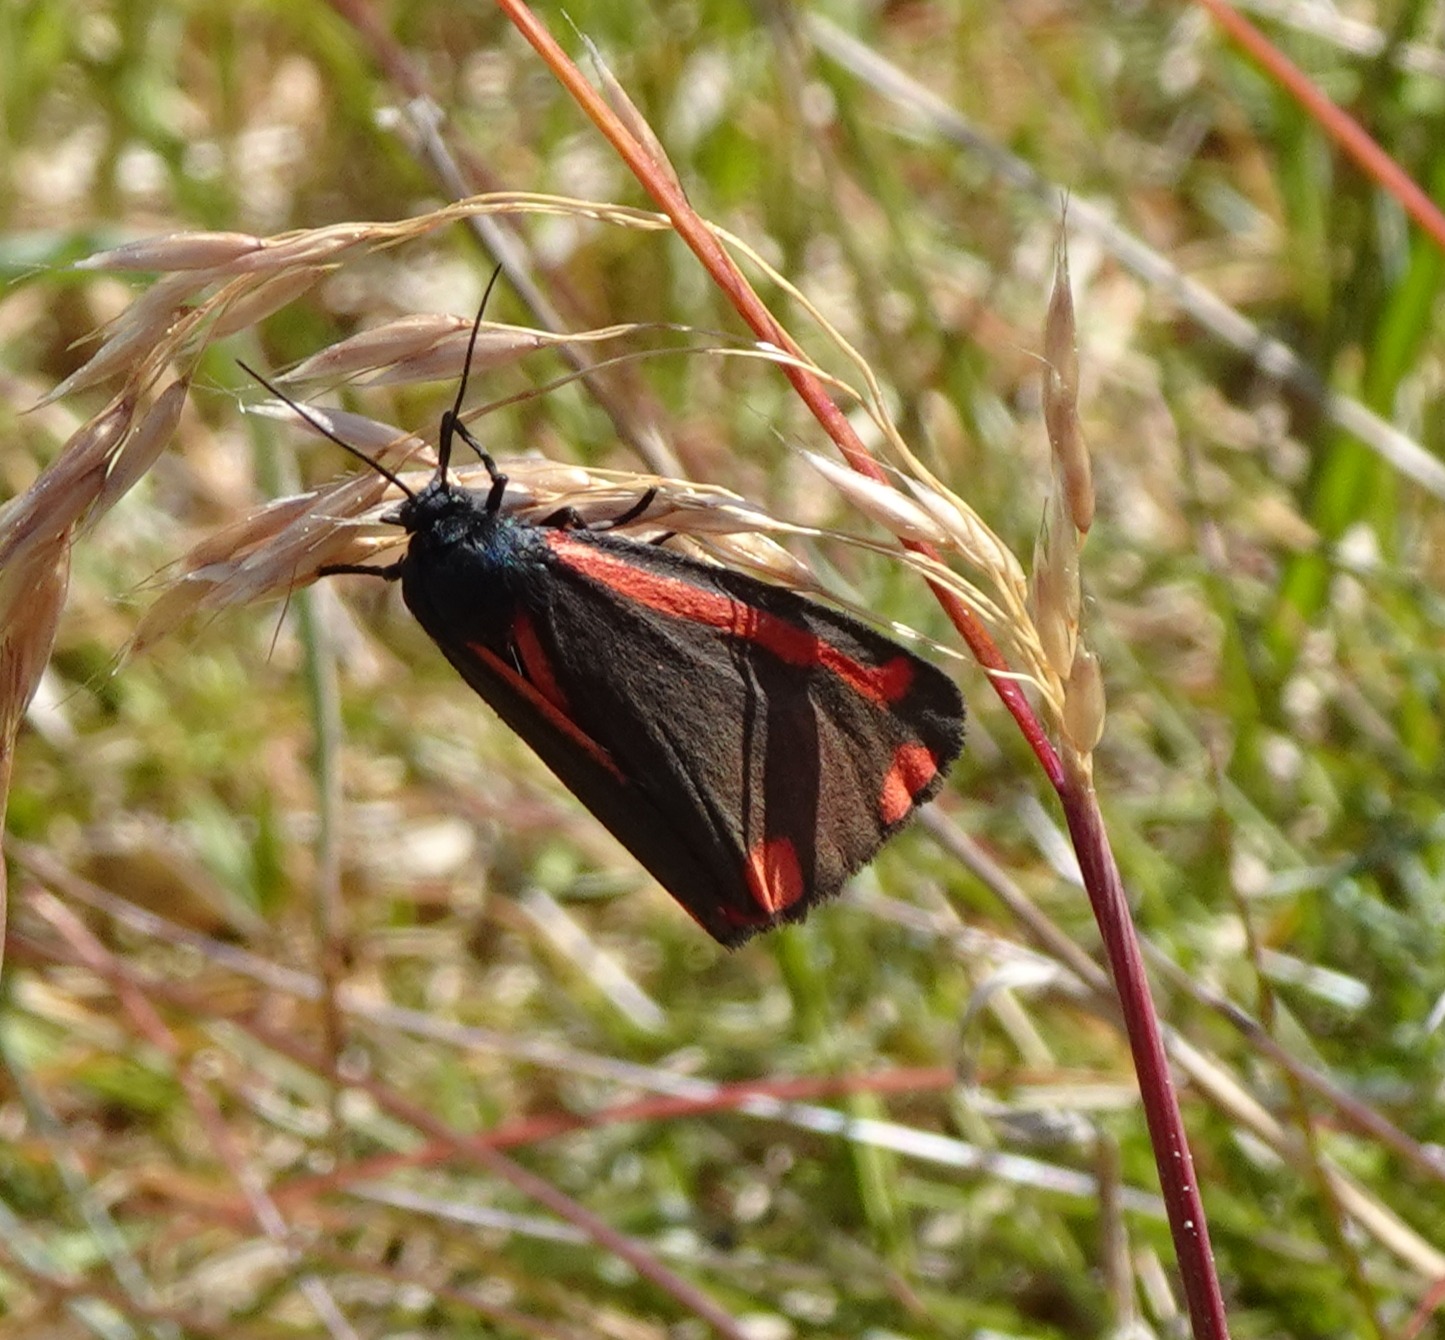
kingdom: Animalia
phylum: Arthropoda
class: Insecta
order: Lepidoptera
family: Erebidae
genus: Tyria
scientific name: Tyria jacobaeae
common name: Blodplet
